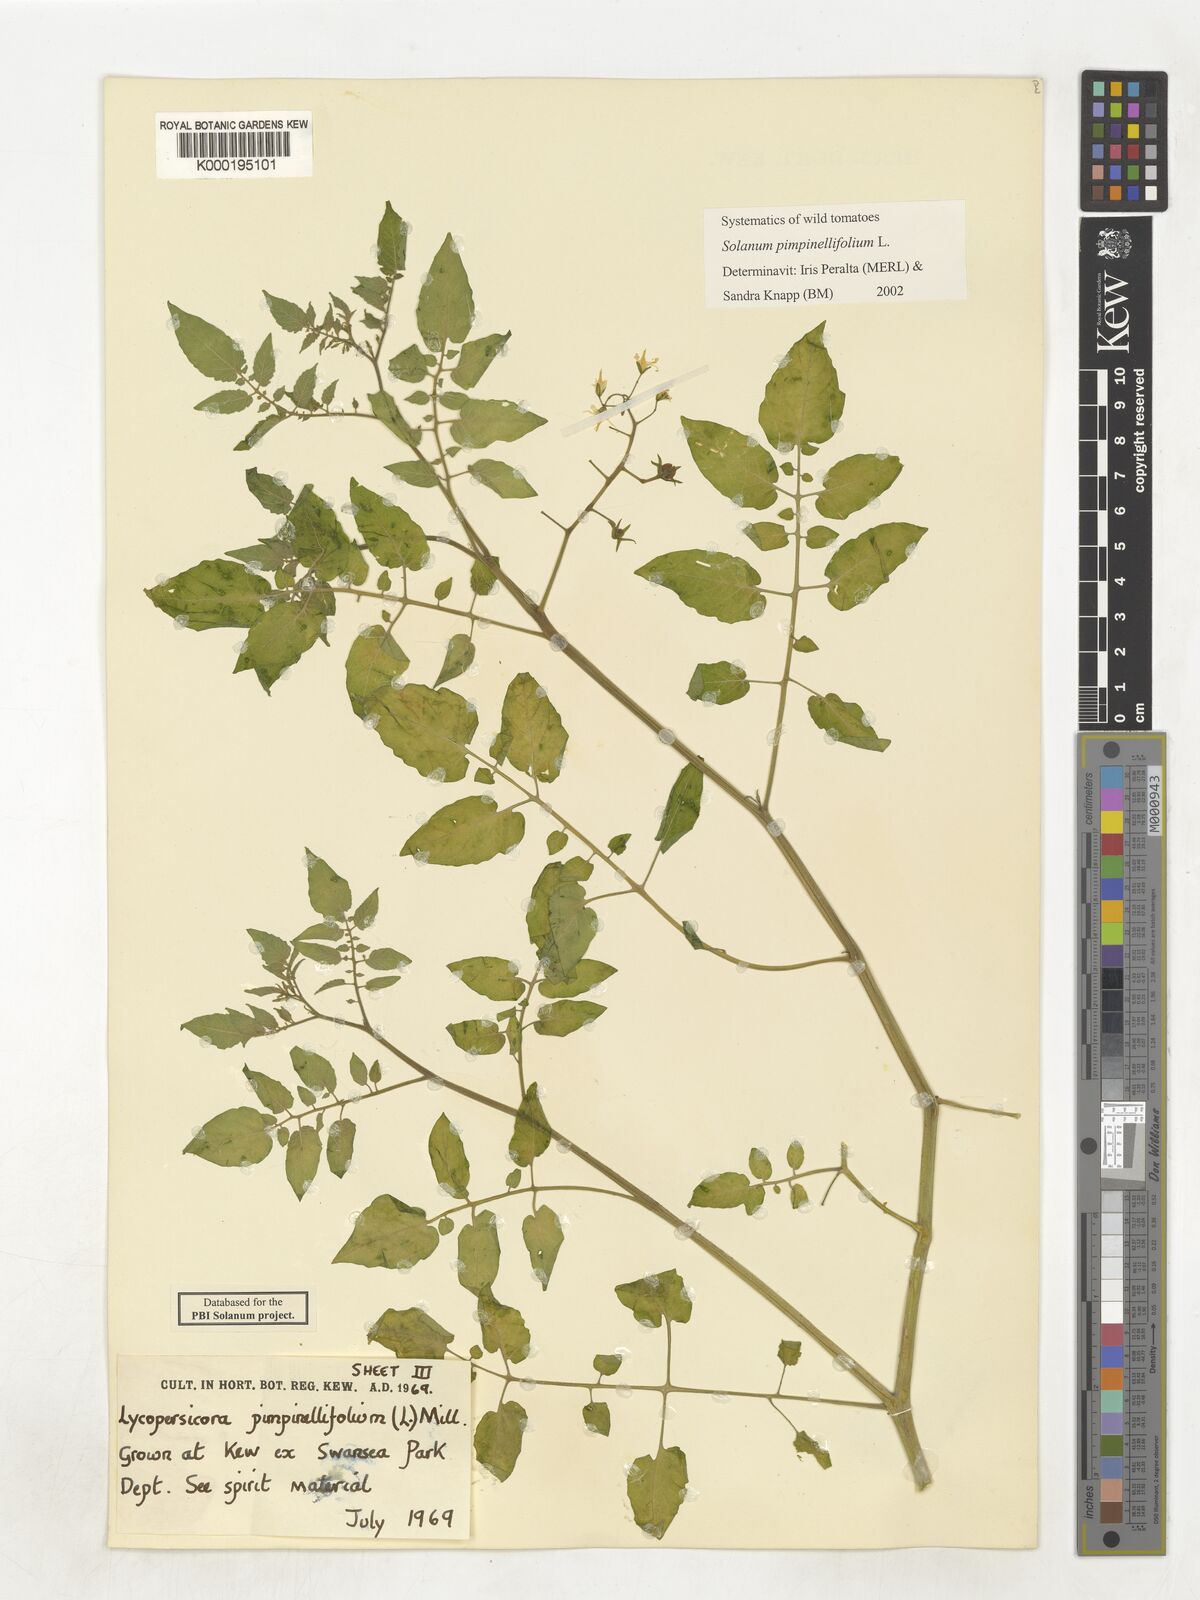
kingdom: Plantae
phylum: Tracheophyta
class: Magnoliopsida
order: Solanales
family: Solanaceae
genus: Solanum
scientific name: Solanum lycopersicum
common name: Garden tomato
